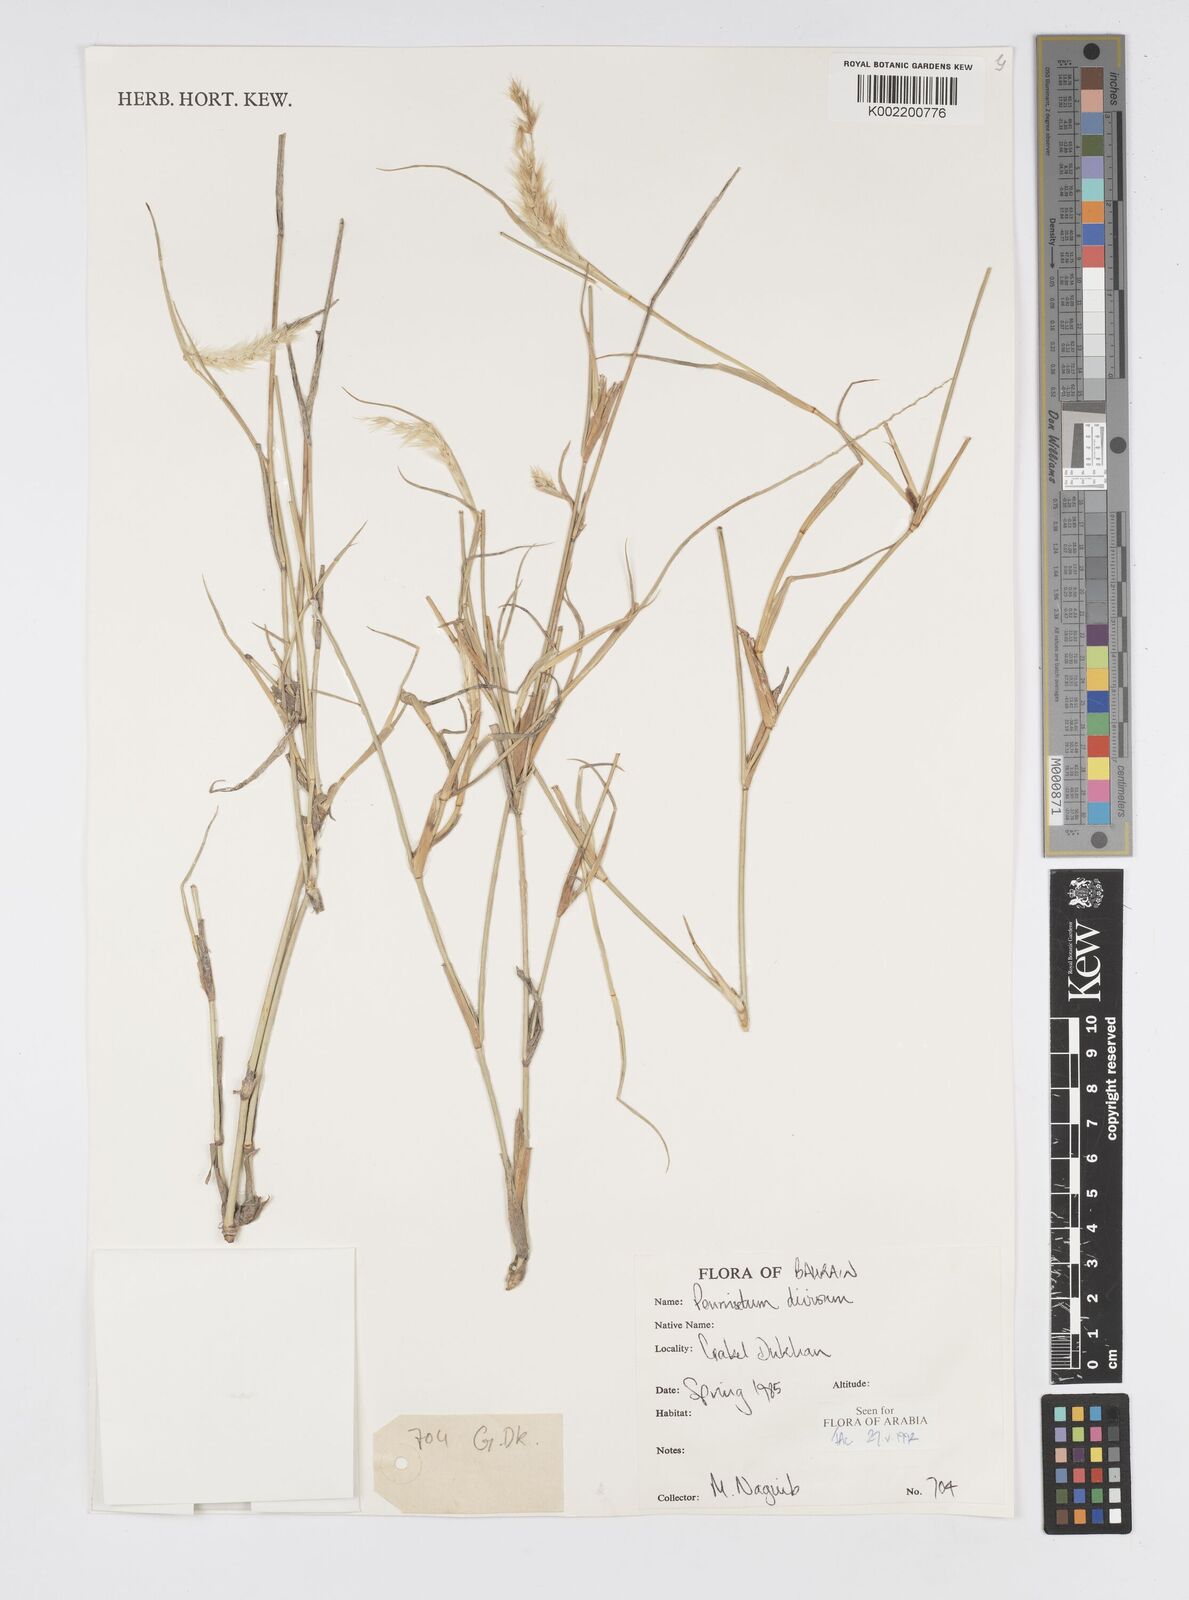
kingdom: Plantae
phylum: Tracheophyta
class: Liliopsida
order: Poales
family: Poaceae
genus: Cenchrus
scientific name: Cenchrus divisus
